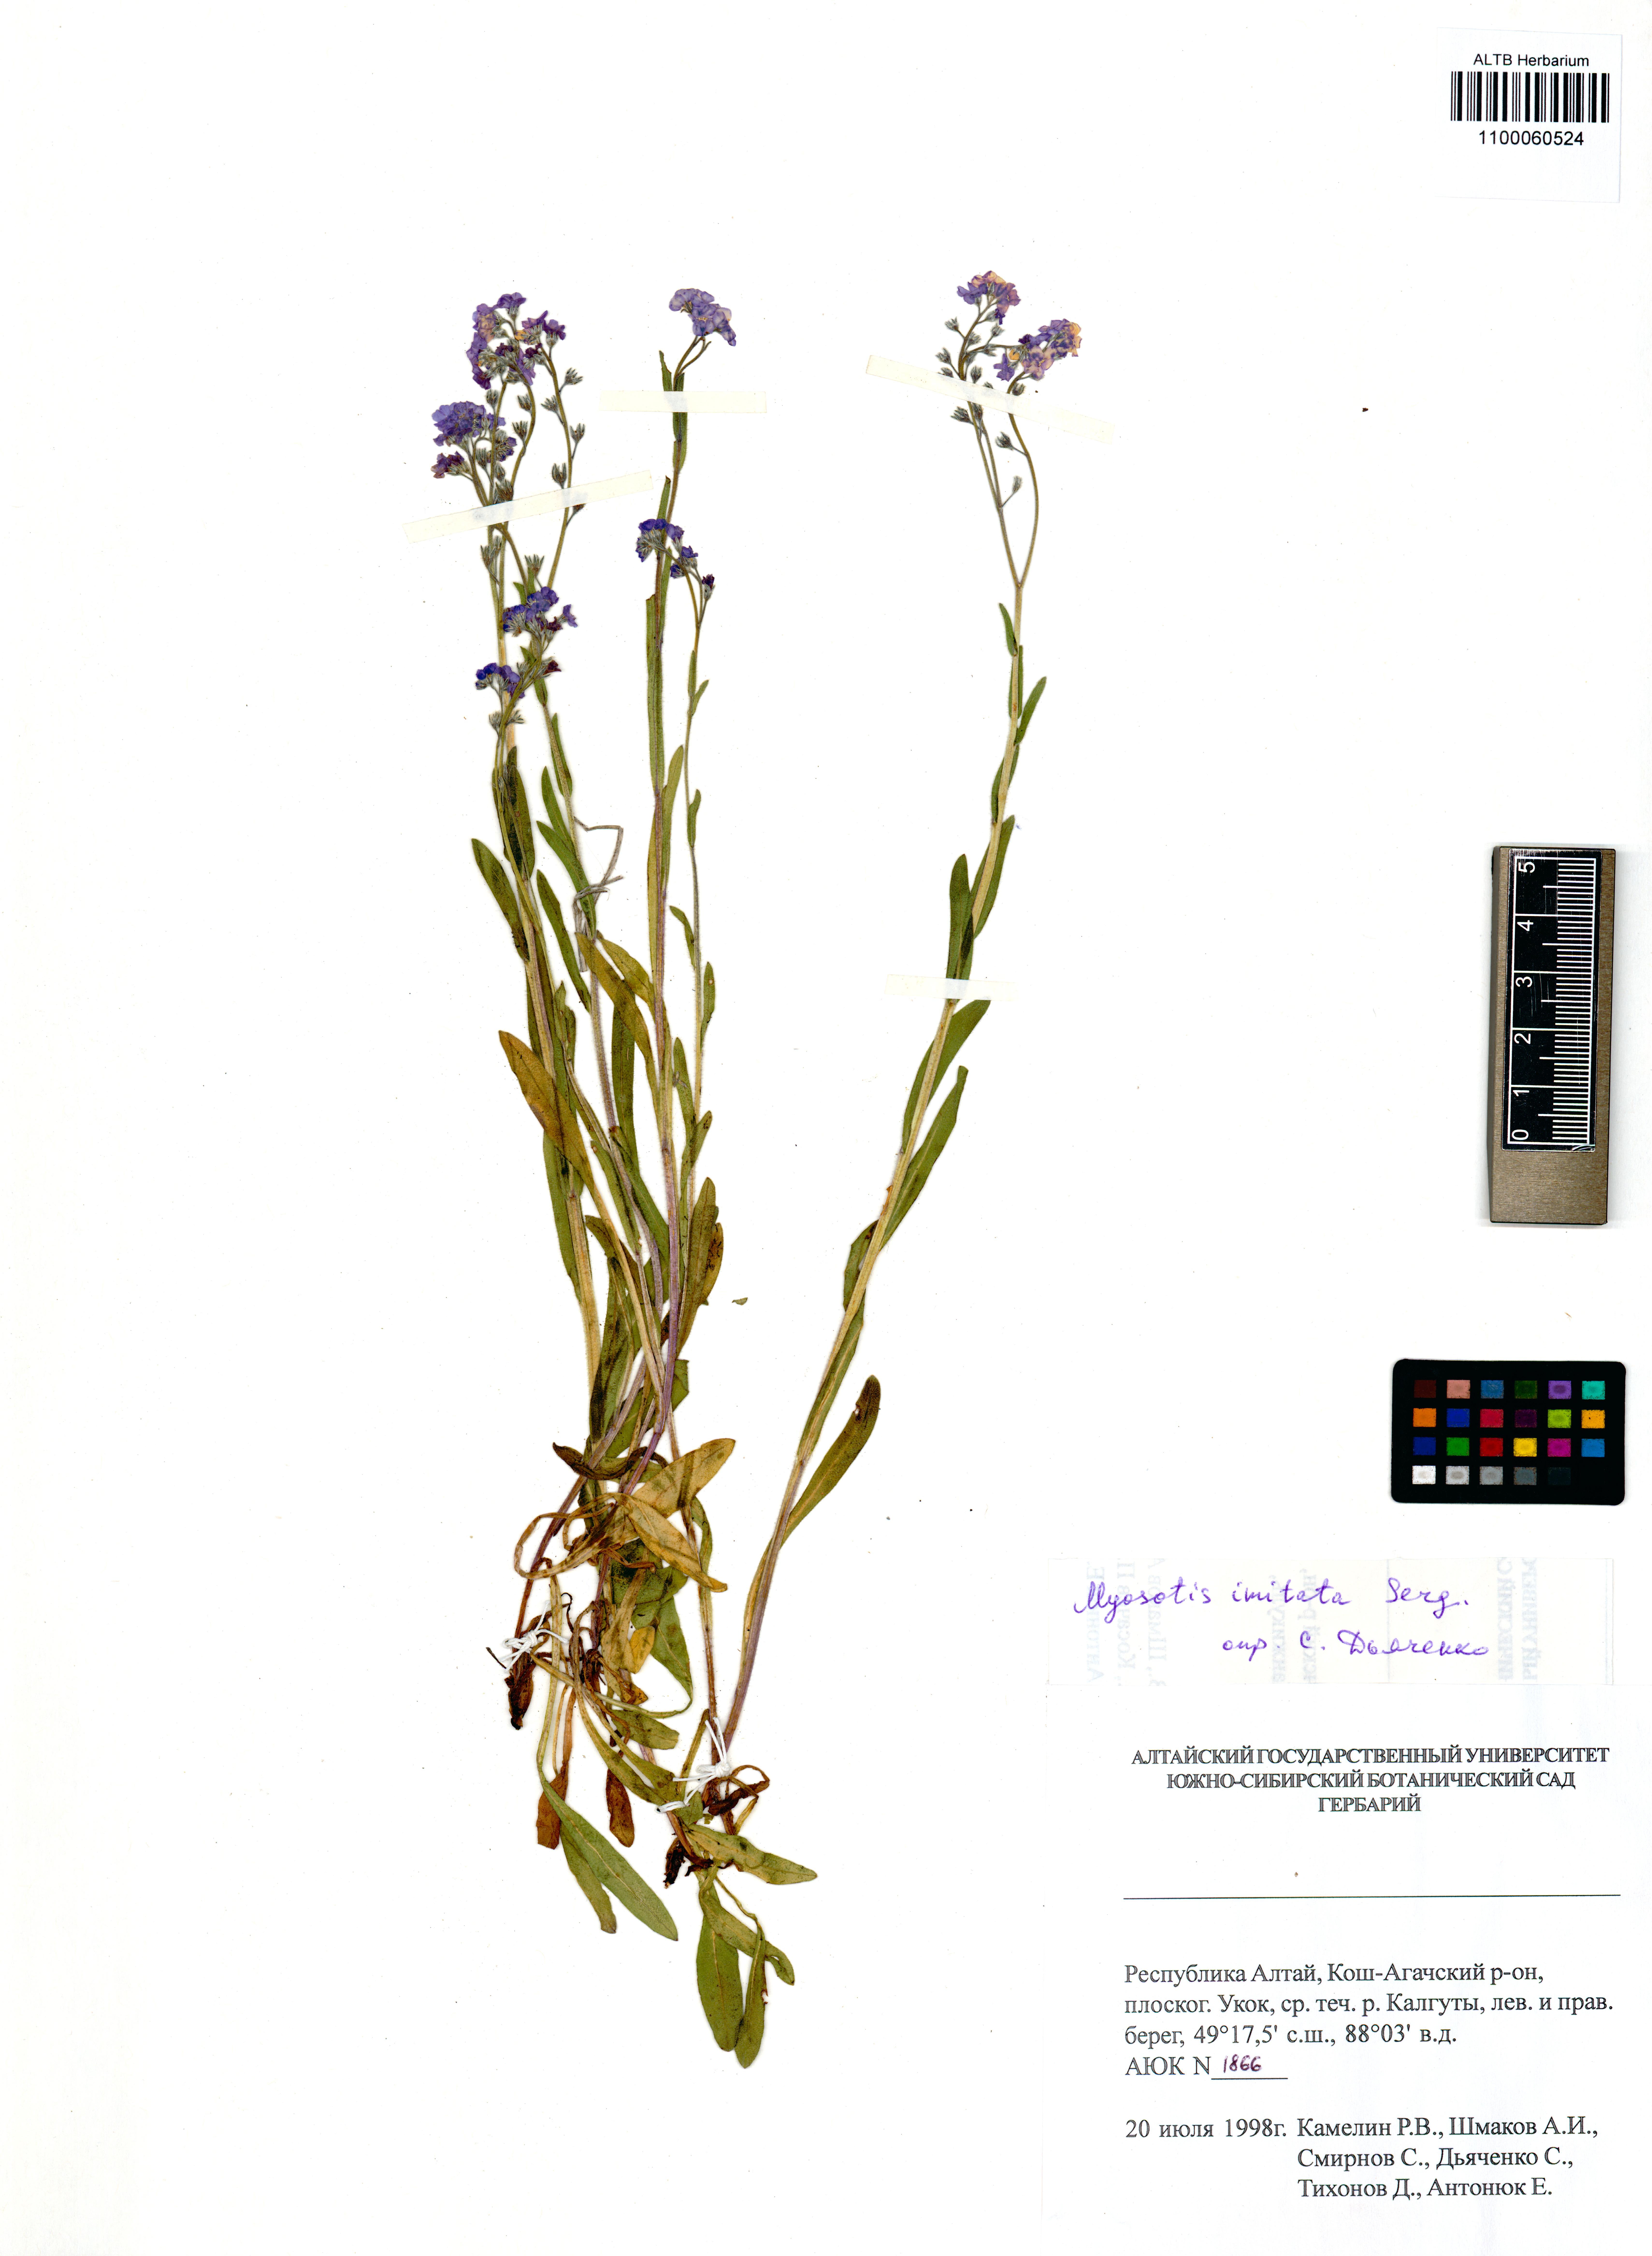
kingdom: Plantae
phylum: Tracheophyta
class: Magnoliopsida
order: Boraginales
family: Boraginaceae
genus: Myosotis
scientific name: Myosotis imitata
